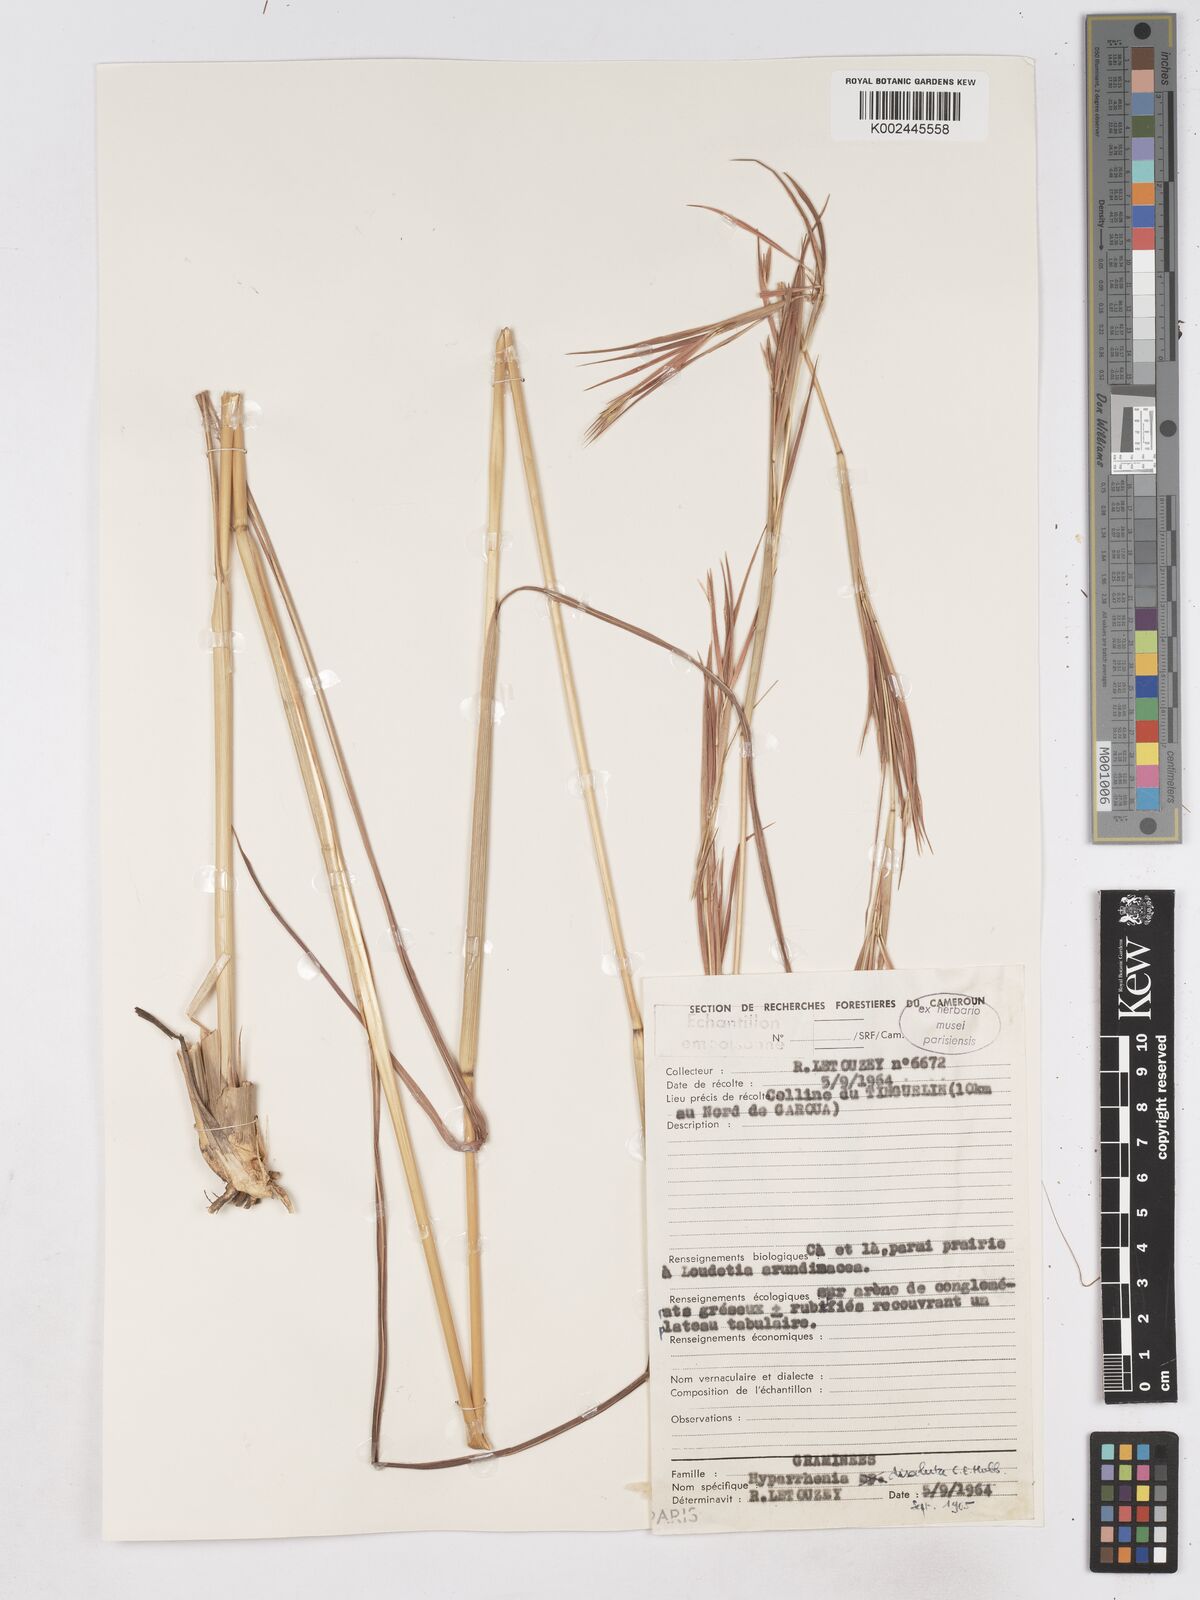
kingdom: Plantae
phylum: Tracheophyta
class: Liliopsida
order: Poales
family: Poaceae
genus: Hyperthelia
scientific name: Hyperthelia dissoluta
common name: Yellow thatching grass
